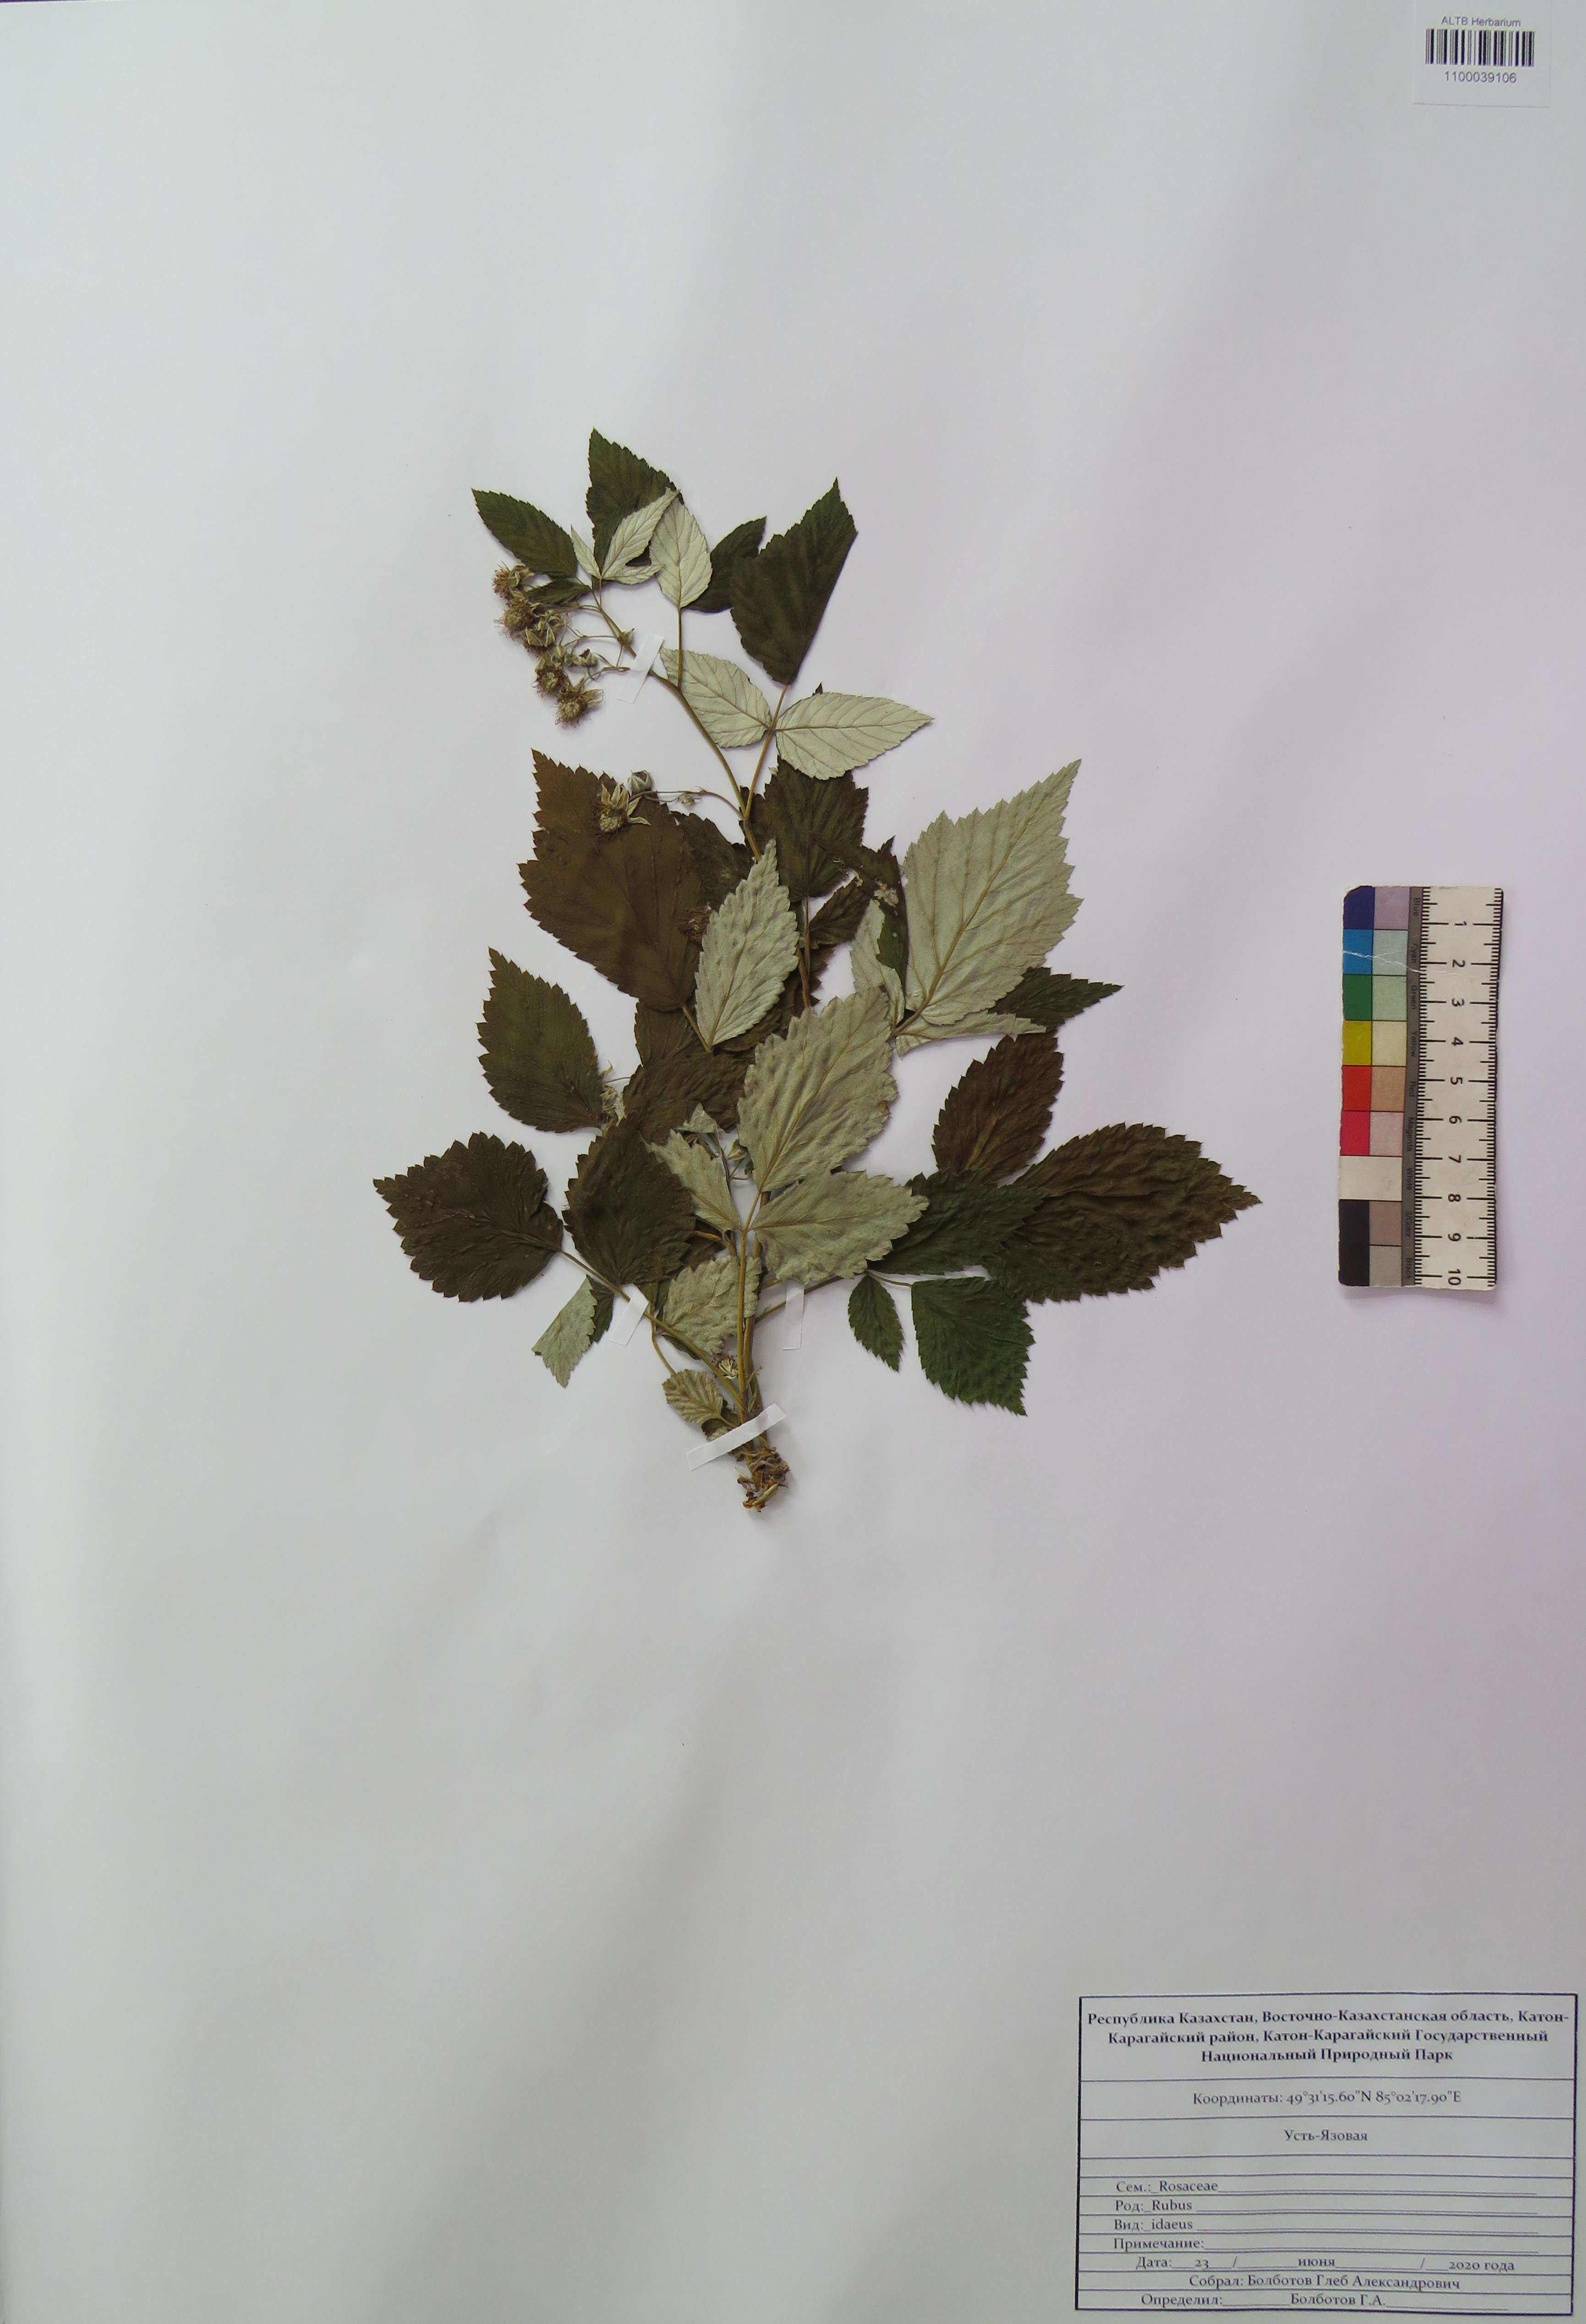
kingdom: Plantae
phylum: Tracheophyta
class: Magnoliopsida
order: Rosales
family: Rosaceae
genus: Rubus
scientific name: Rubus idaeus
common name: Raspberry
